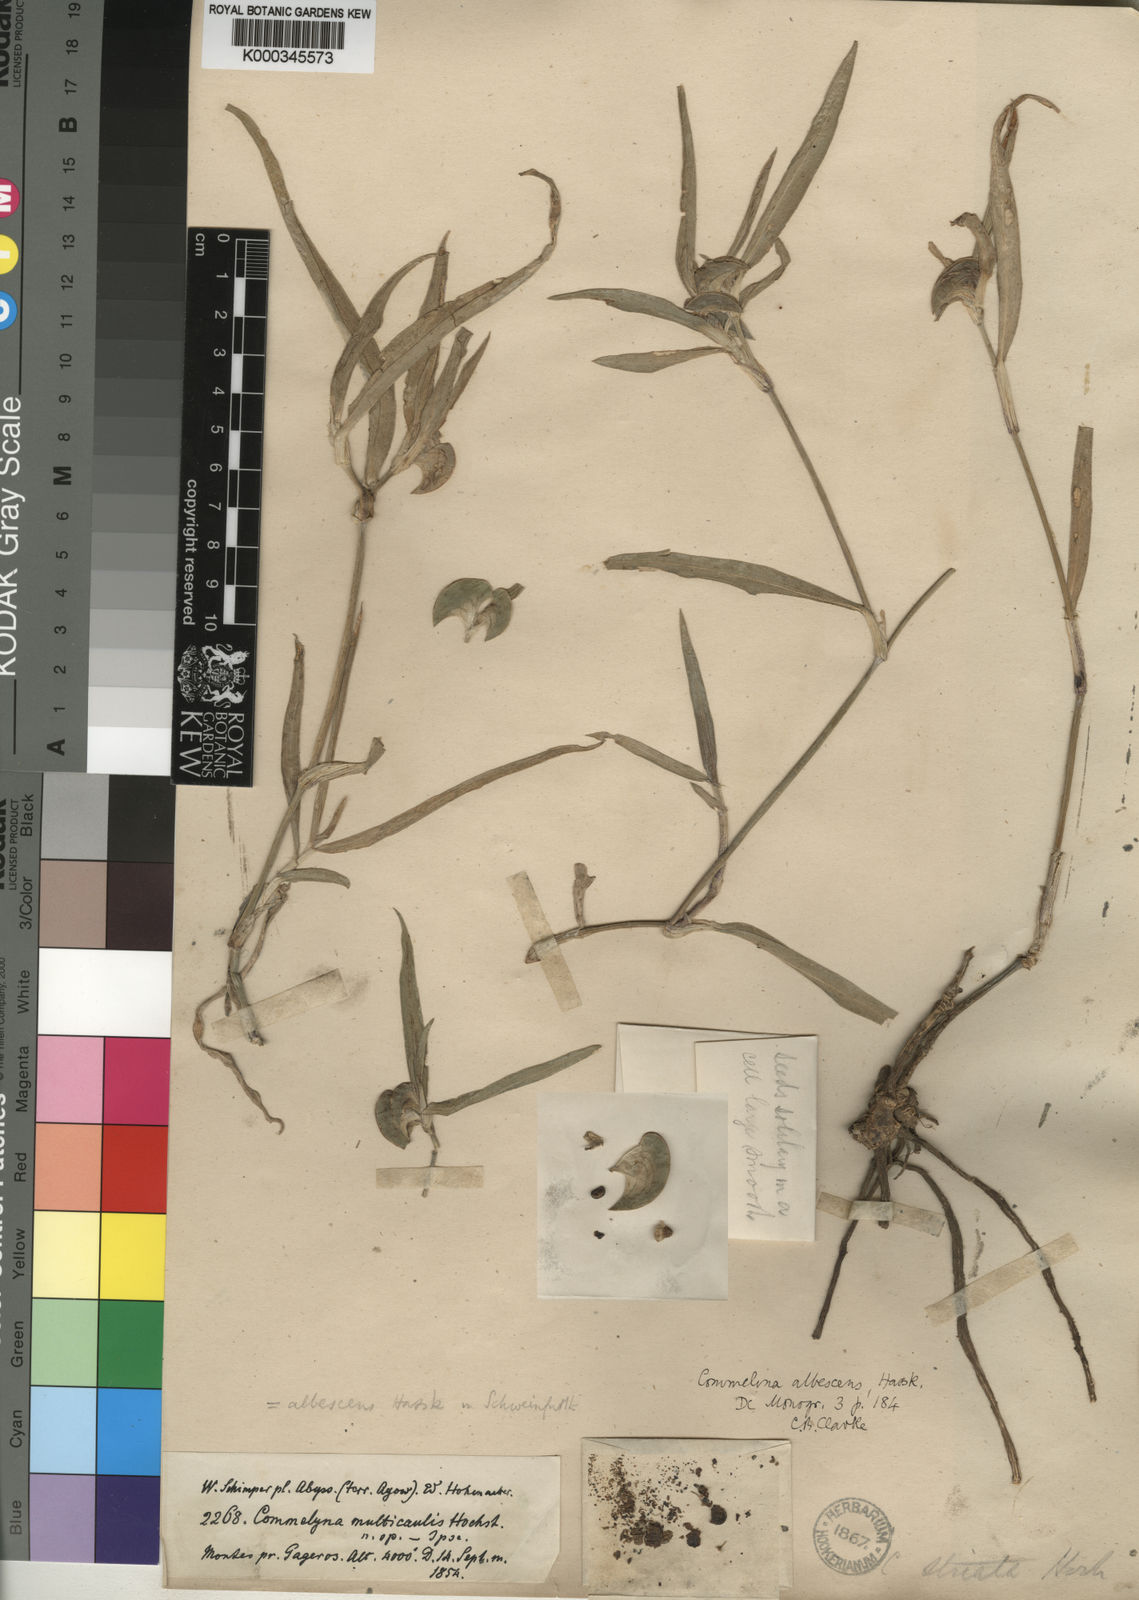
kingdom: Plantae
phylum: Tracheophyta
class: Liliopsida
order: Commelinales
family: Commelinaceae
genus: Commelina
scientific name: Commelina albescens
